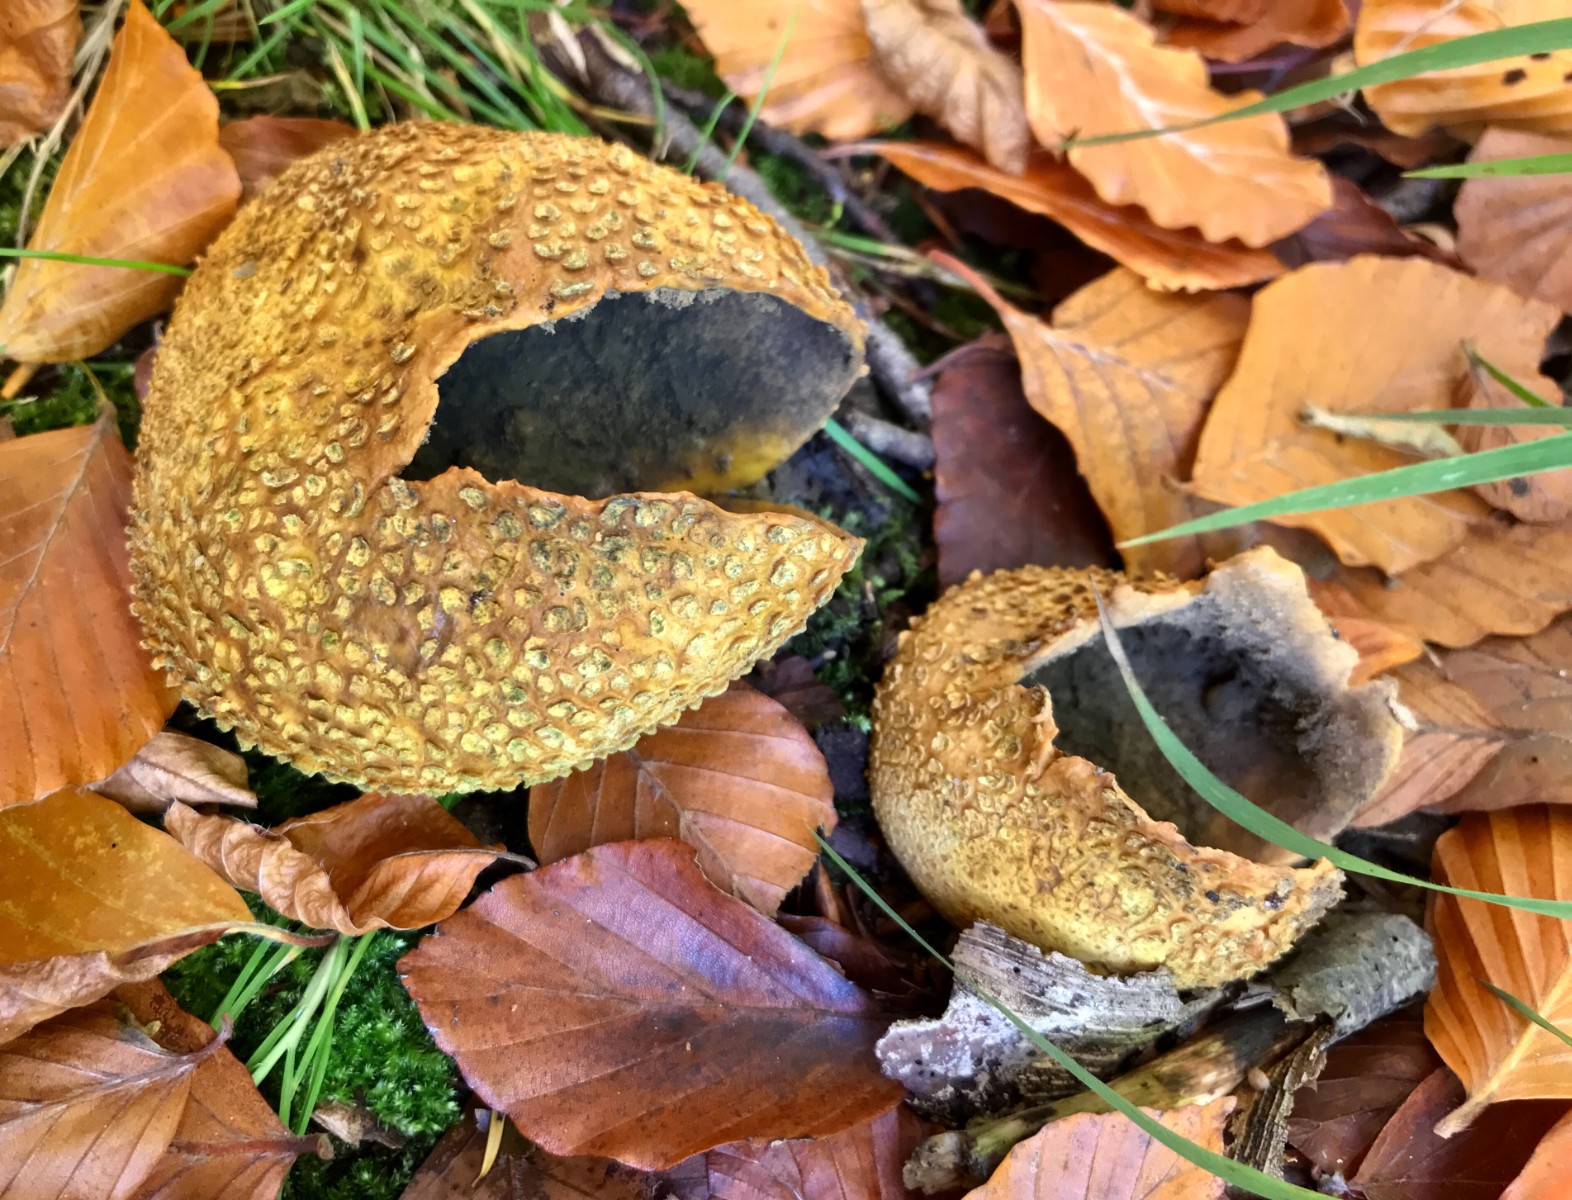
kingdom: Fungi
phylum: Basidiomycota
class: Agaricomycetes
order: Boletales
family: Sclerodermataceae
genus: Scleroderma
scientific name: Scleroderma citrinum
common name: almindelig bruskbold
